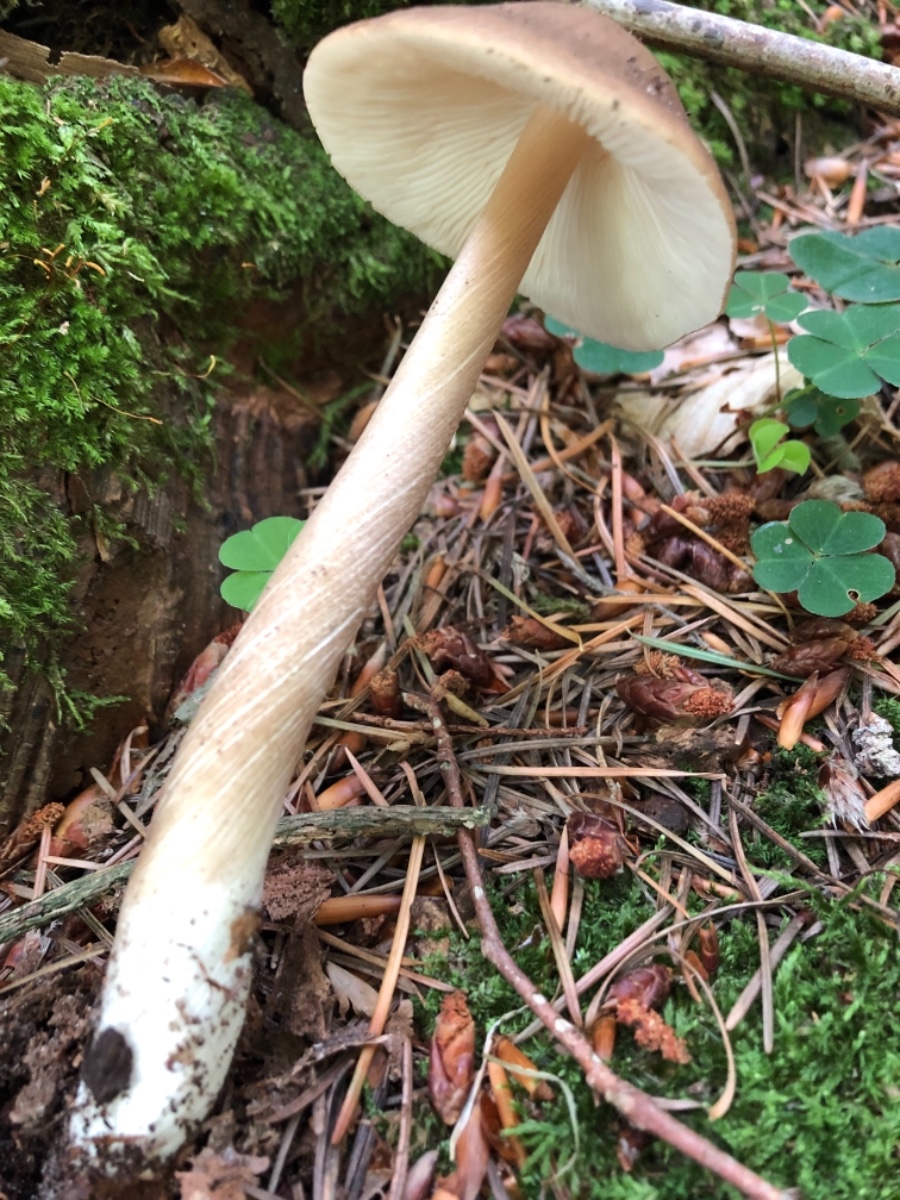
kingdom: Fungi
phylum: Basidiomycota
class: Agaricomycetes
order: Agaricales
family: Physalacriaceae
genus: Hymenopellis
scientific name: Hymenopellis radicata
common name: almindelig pælerodshat
